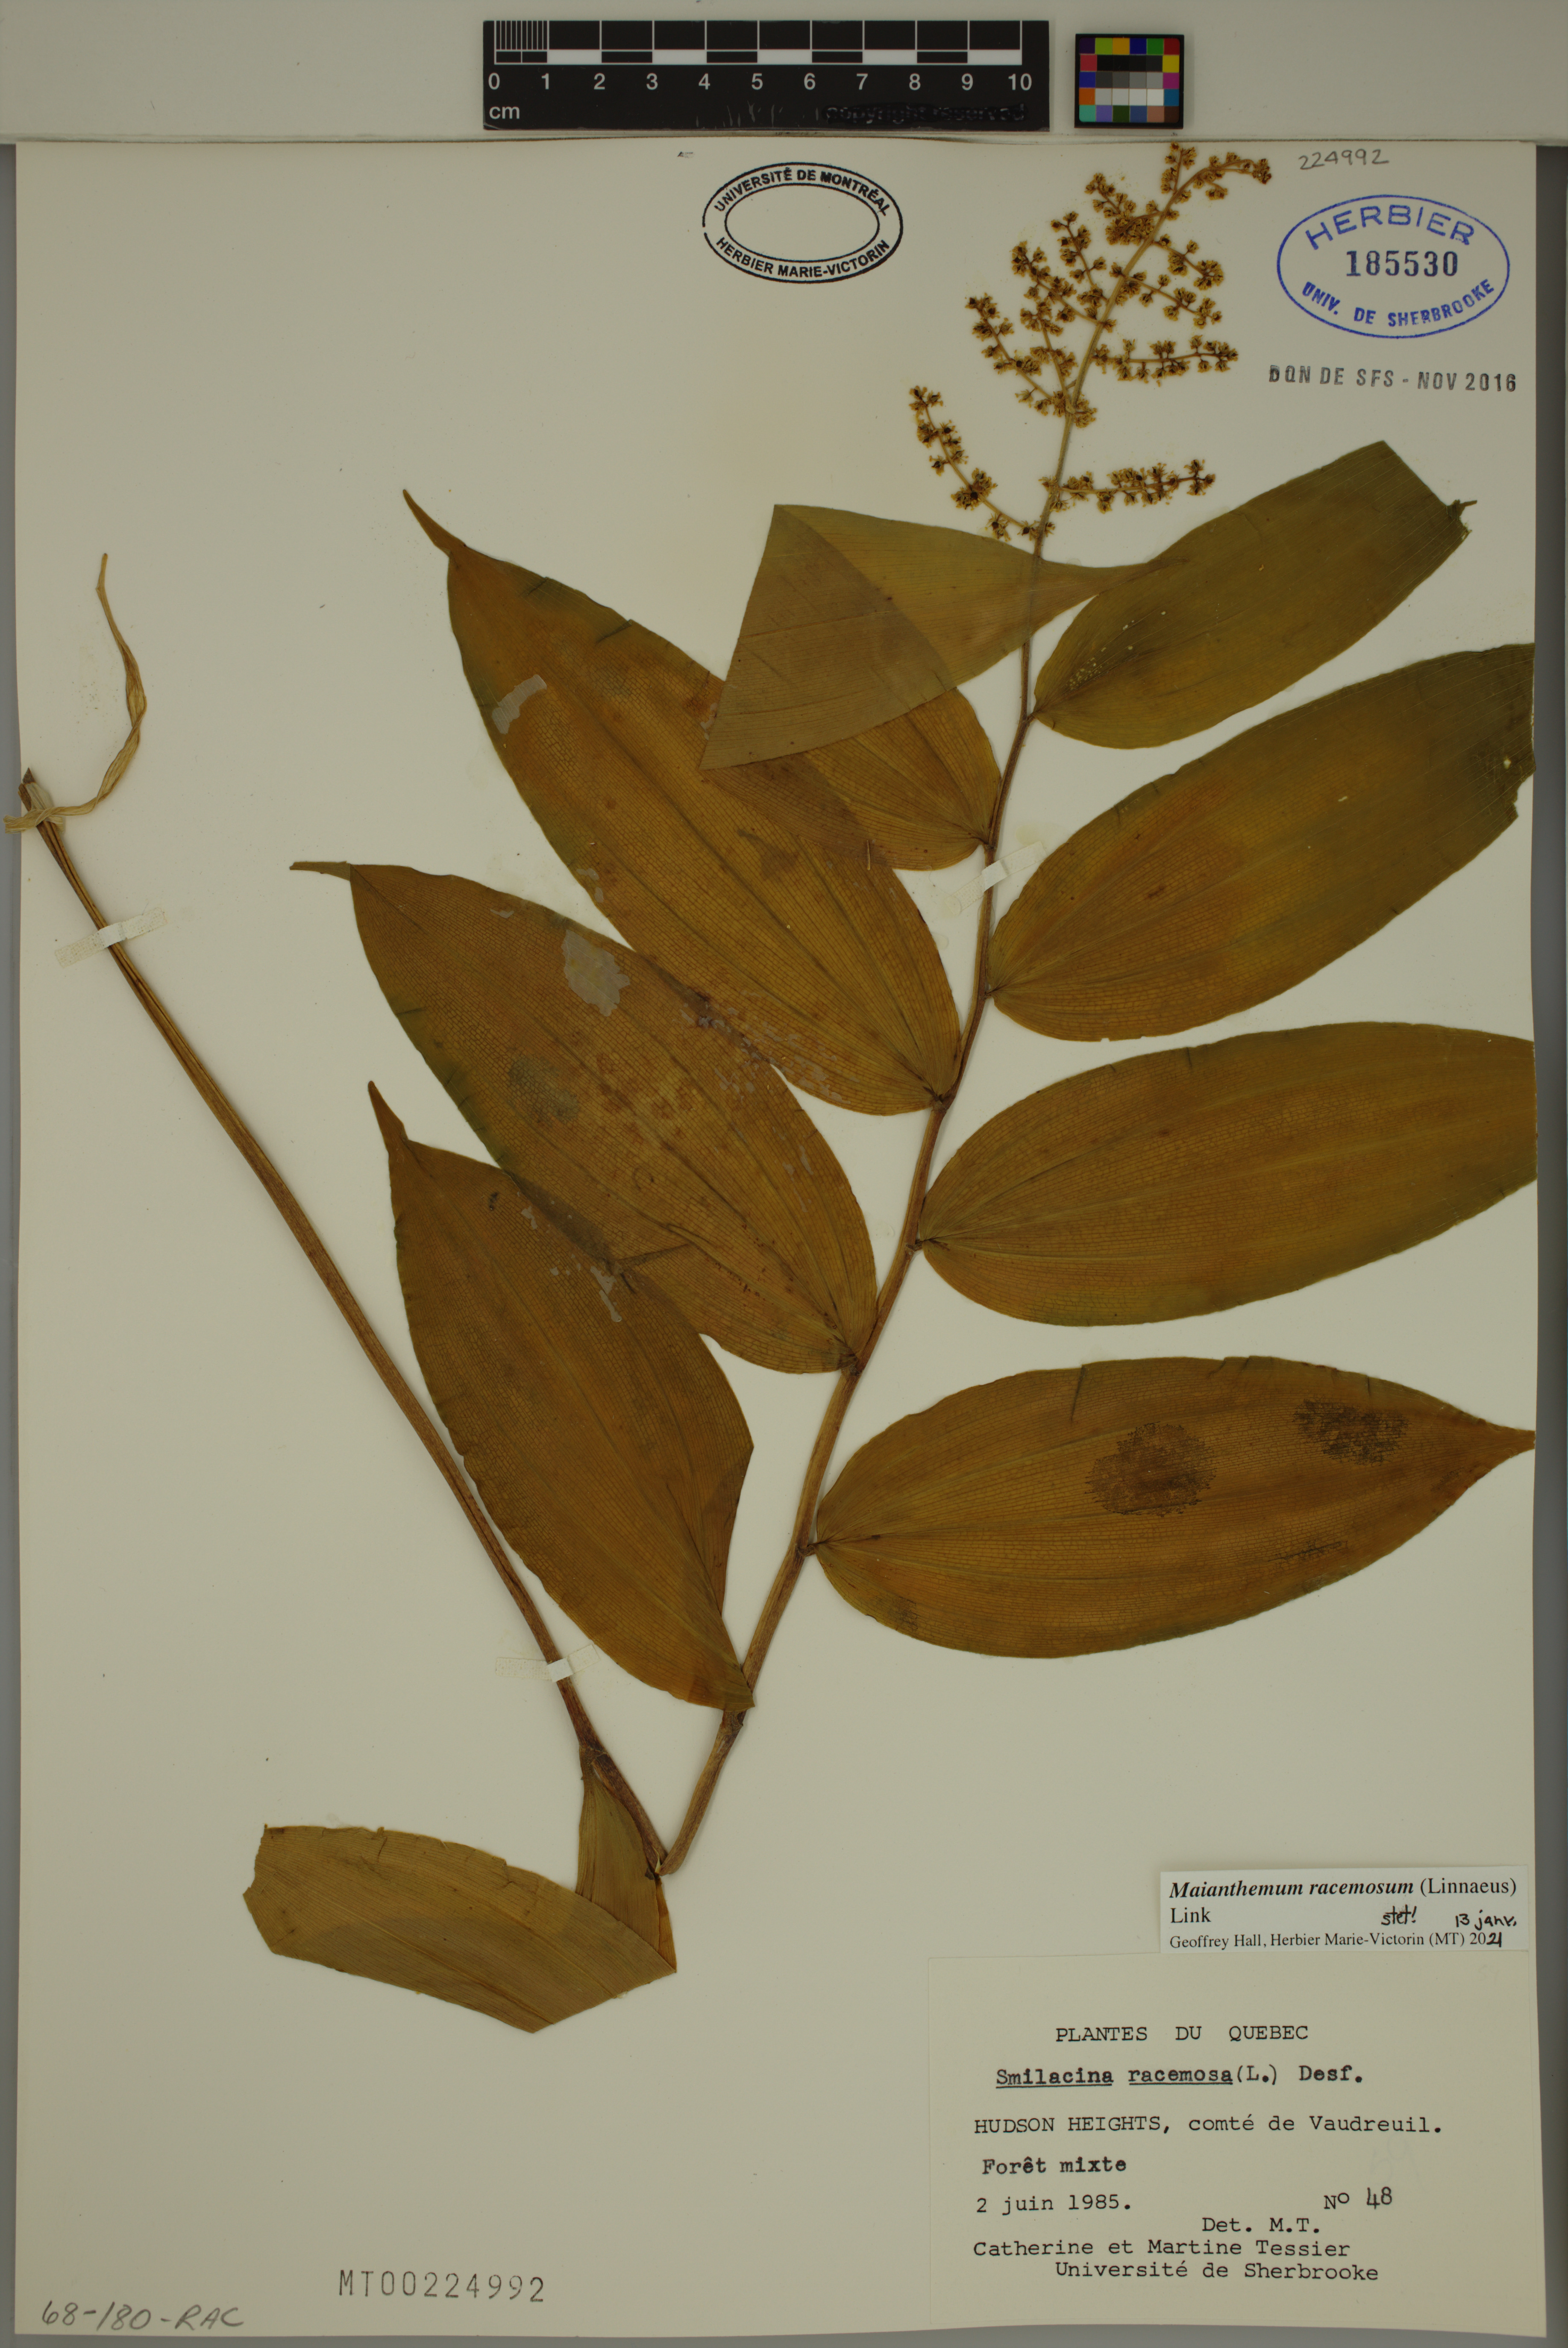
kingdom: Plantae
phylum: Tracheophyta
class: Liliopsida
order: Asparagales
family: Asparagaceae
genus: Maianthemum
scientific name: Maianthemum racemosum
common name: False spikenard
